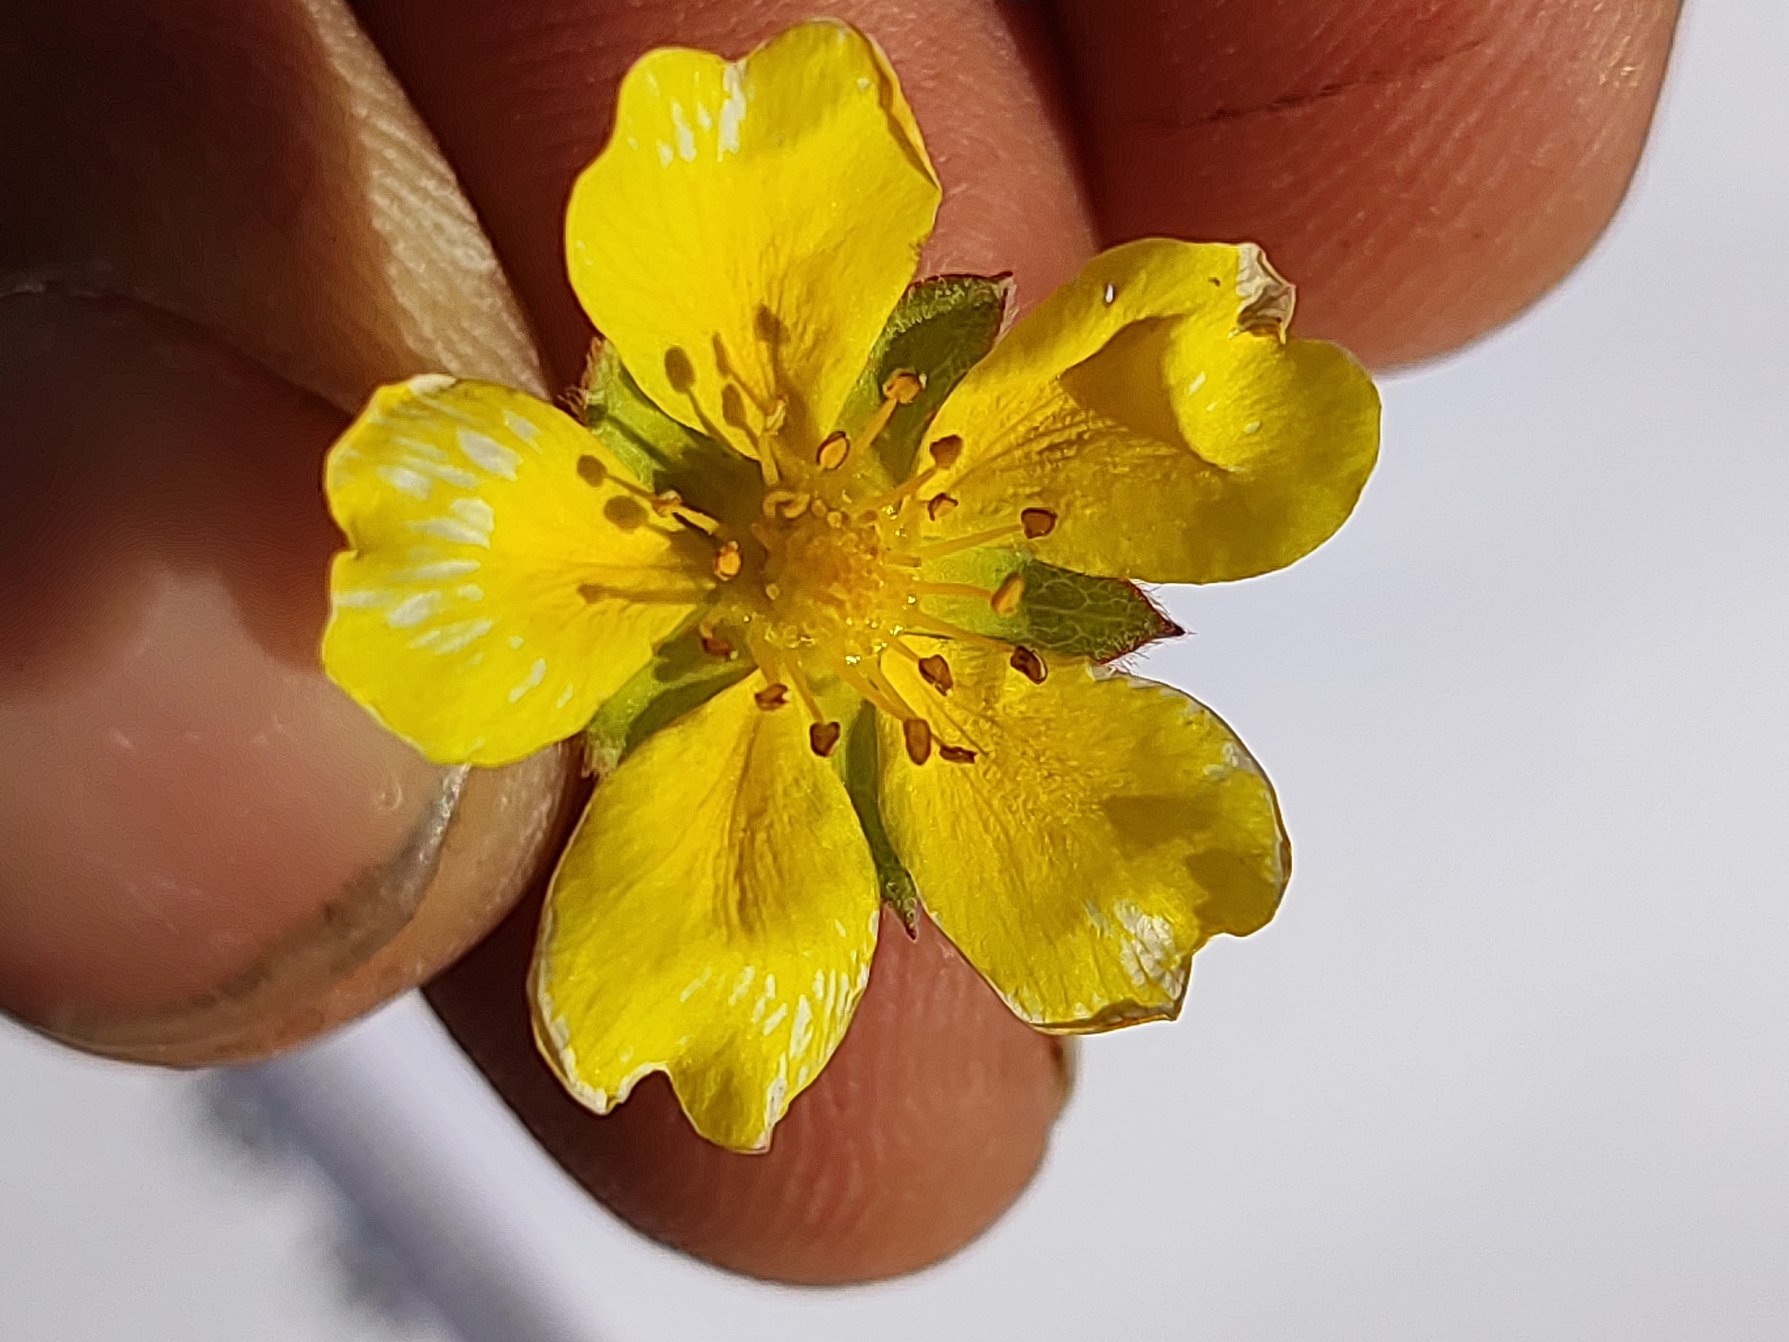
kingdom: Plantae
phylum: Tracheophyta
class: Magnoliopsida
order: Rosales
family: Rosaceae
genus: Potentilla
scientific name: Potentilla reptans
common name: Krybende potentil
